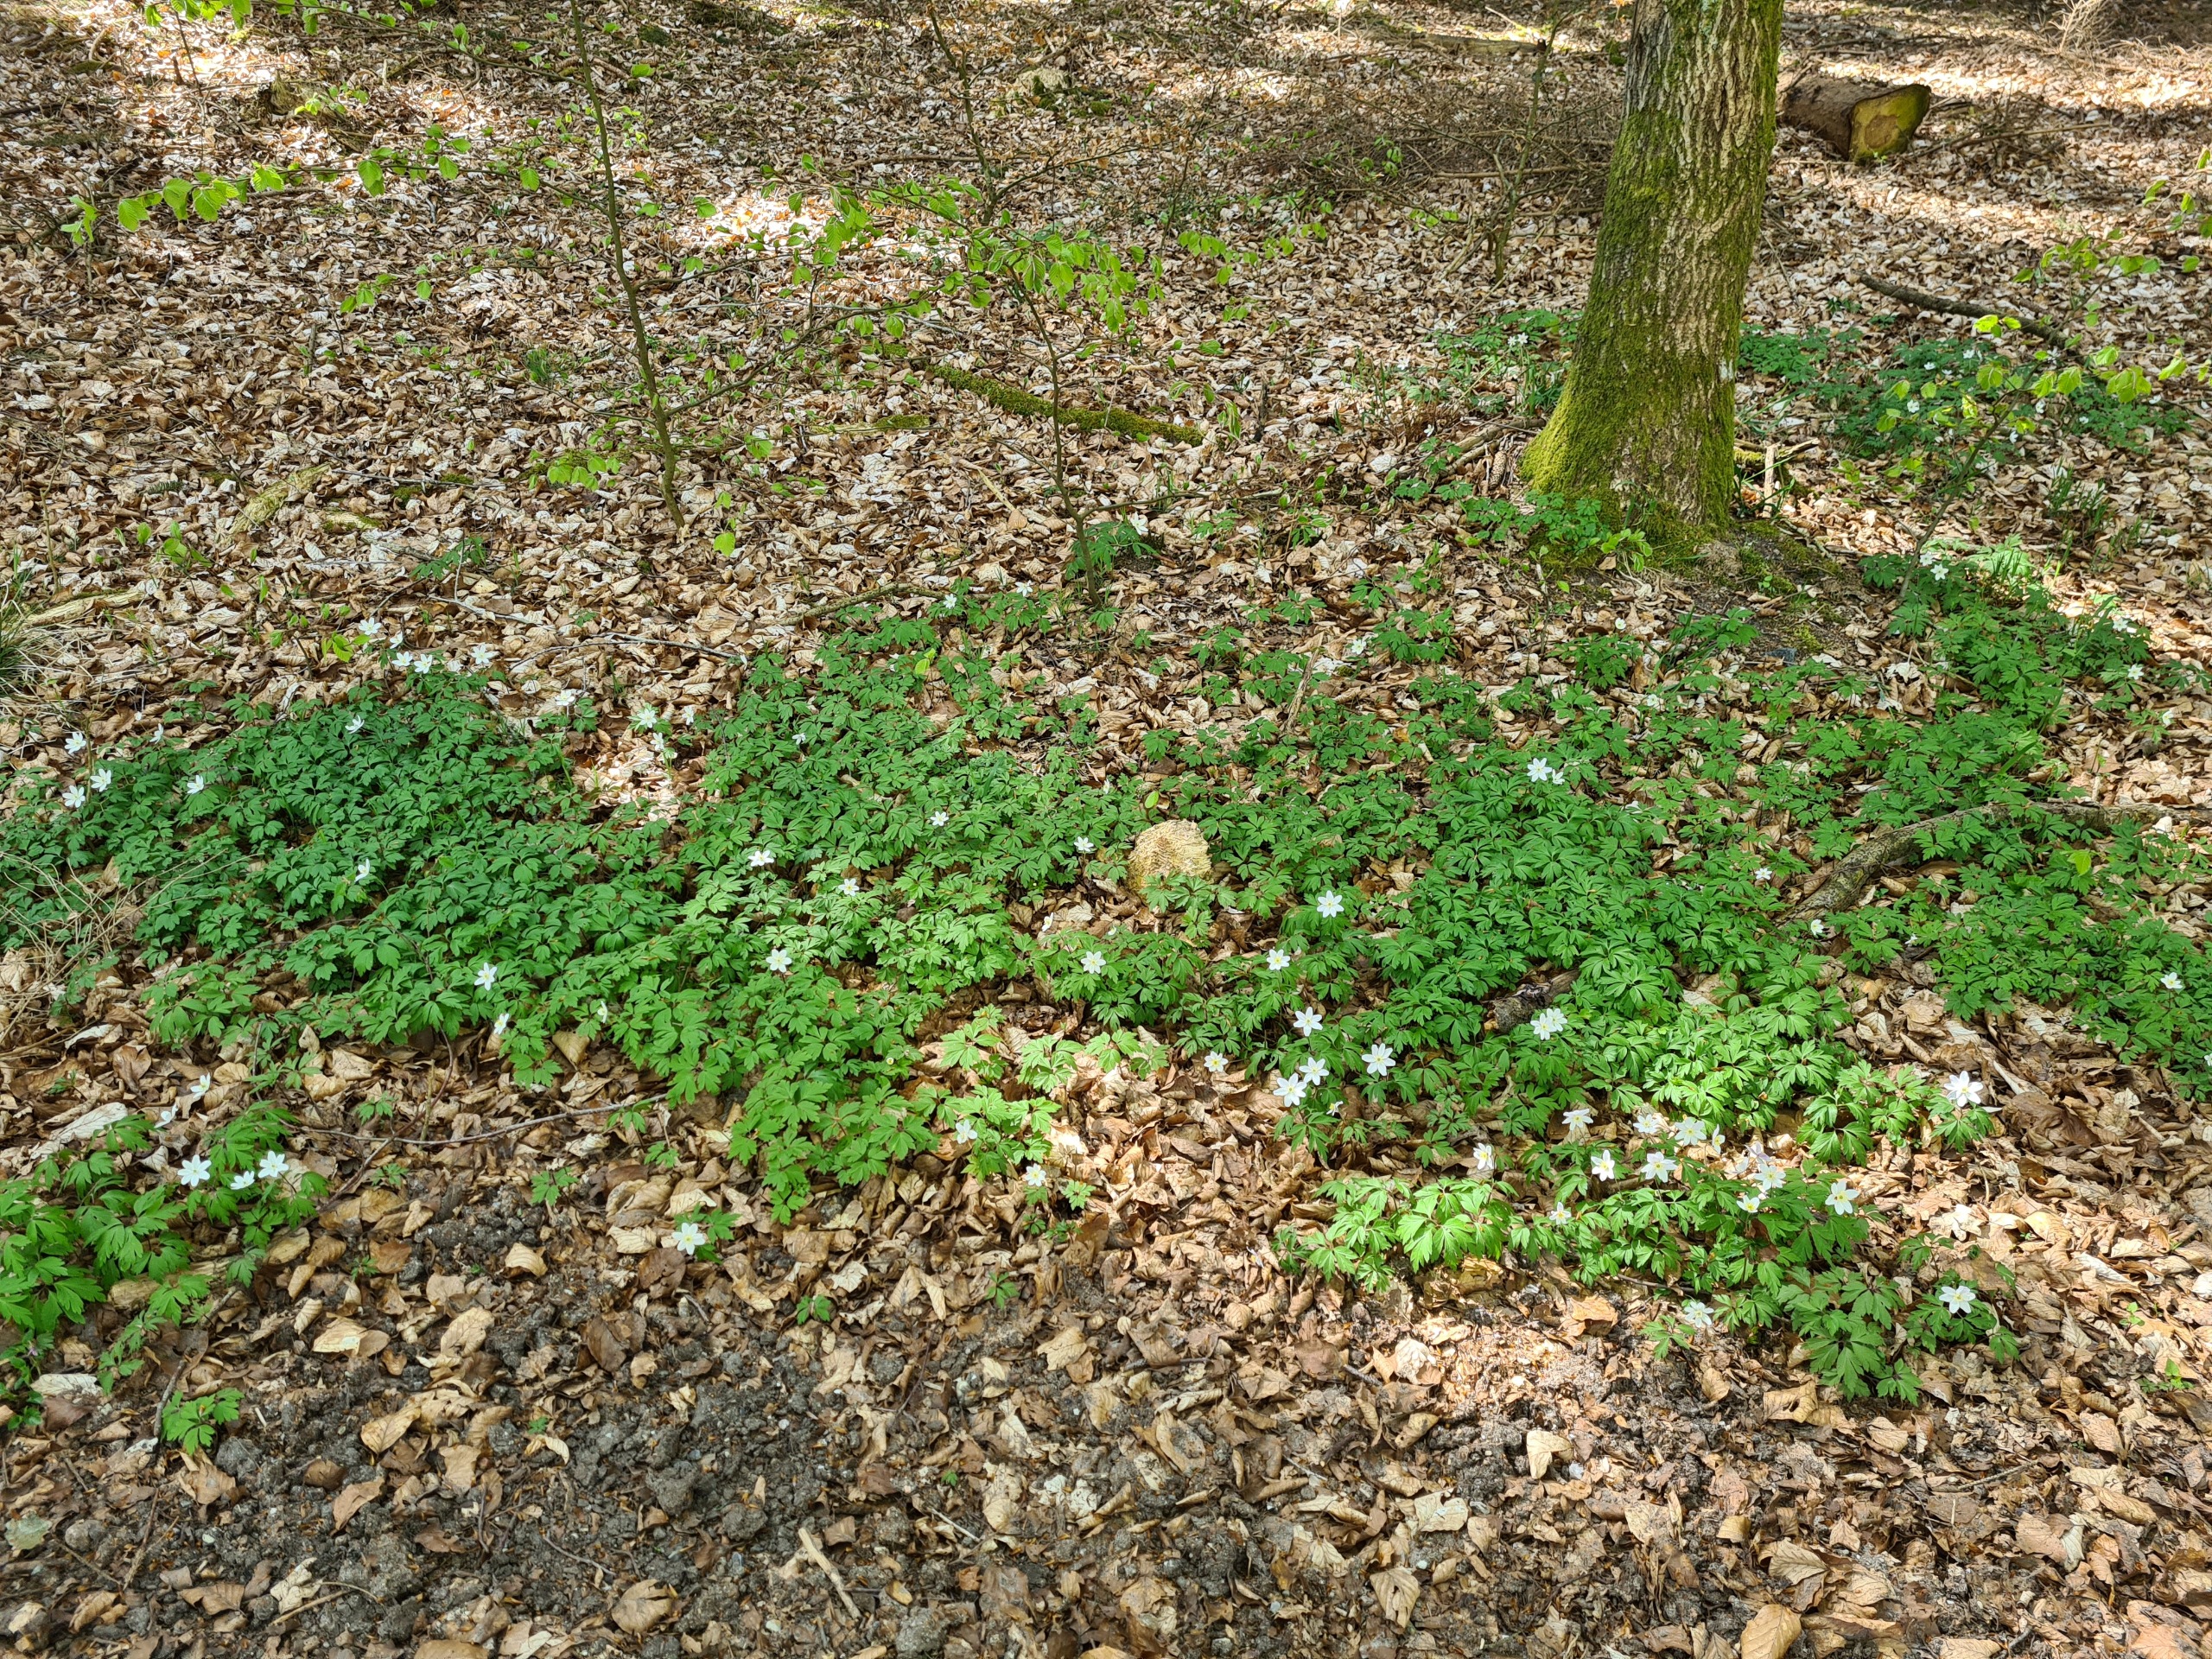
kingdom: Plantae
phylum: Tracheophyta
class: Magnoliopsida
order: Ranunculales
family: Ranunculaceae
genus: Anemone
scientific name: Anemone nemorosa
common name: Hvid anemone
